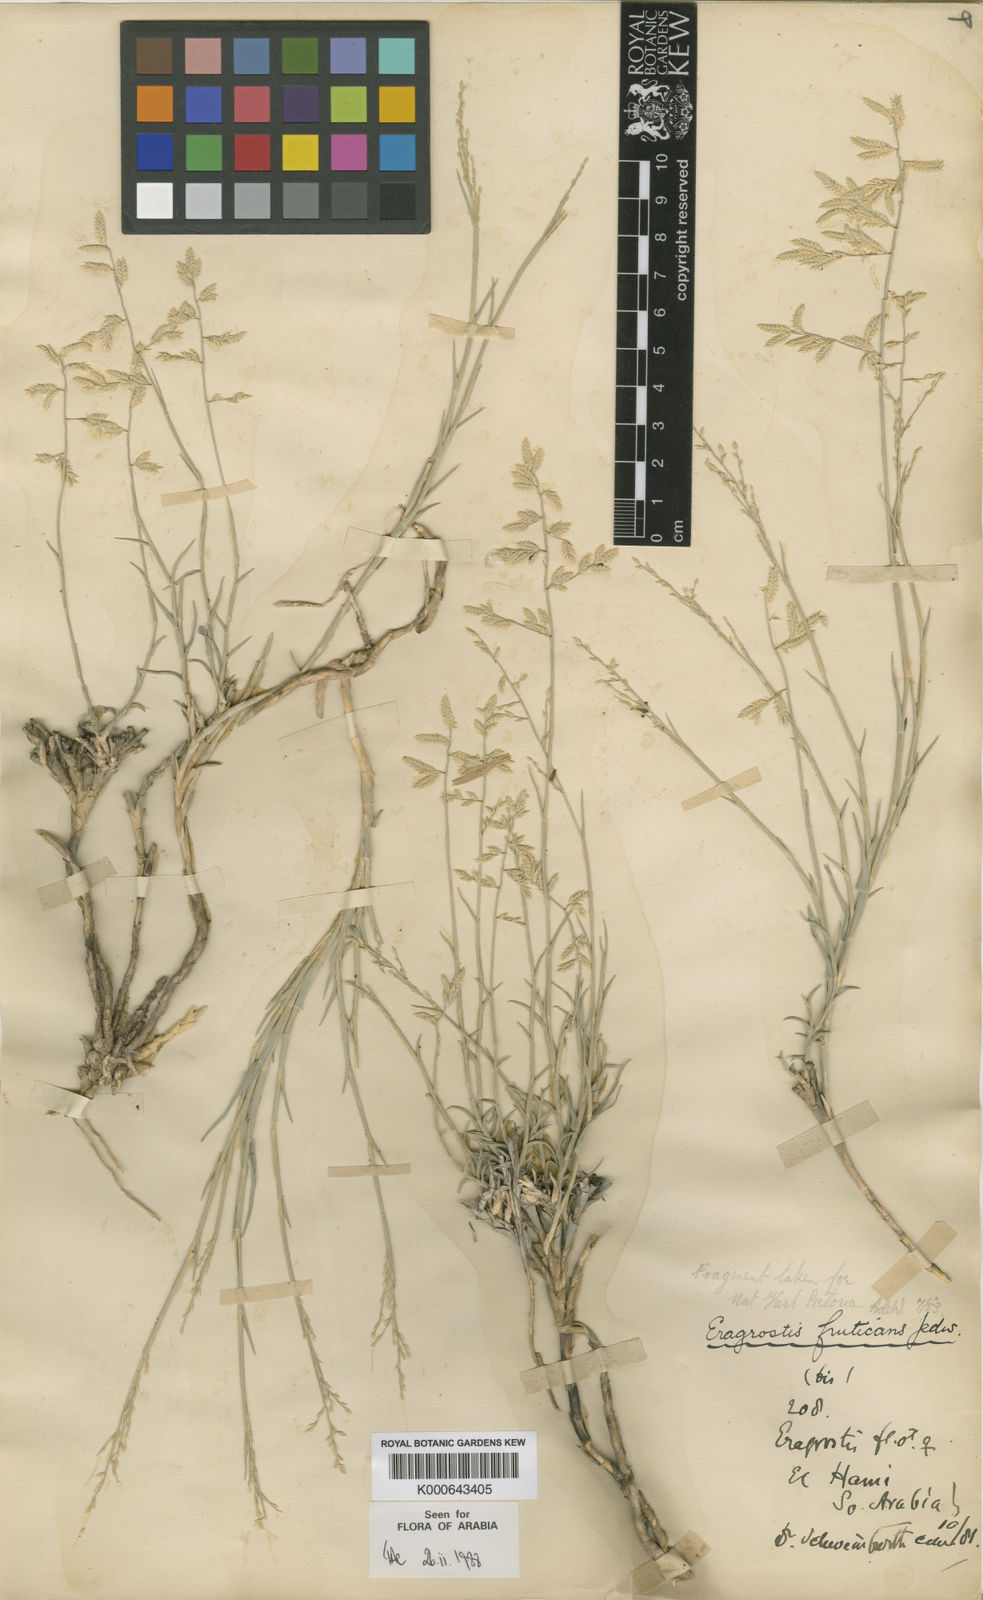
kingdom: Plantae
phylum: Tracheophyta
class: Liliopsida
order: Poales
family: Poaceae
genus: Eragrostis
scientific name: Eragrostis mahrana
